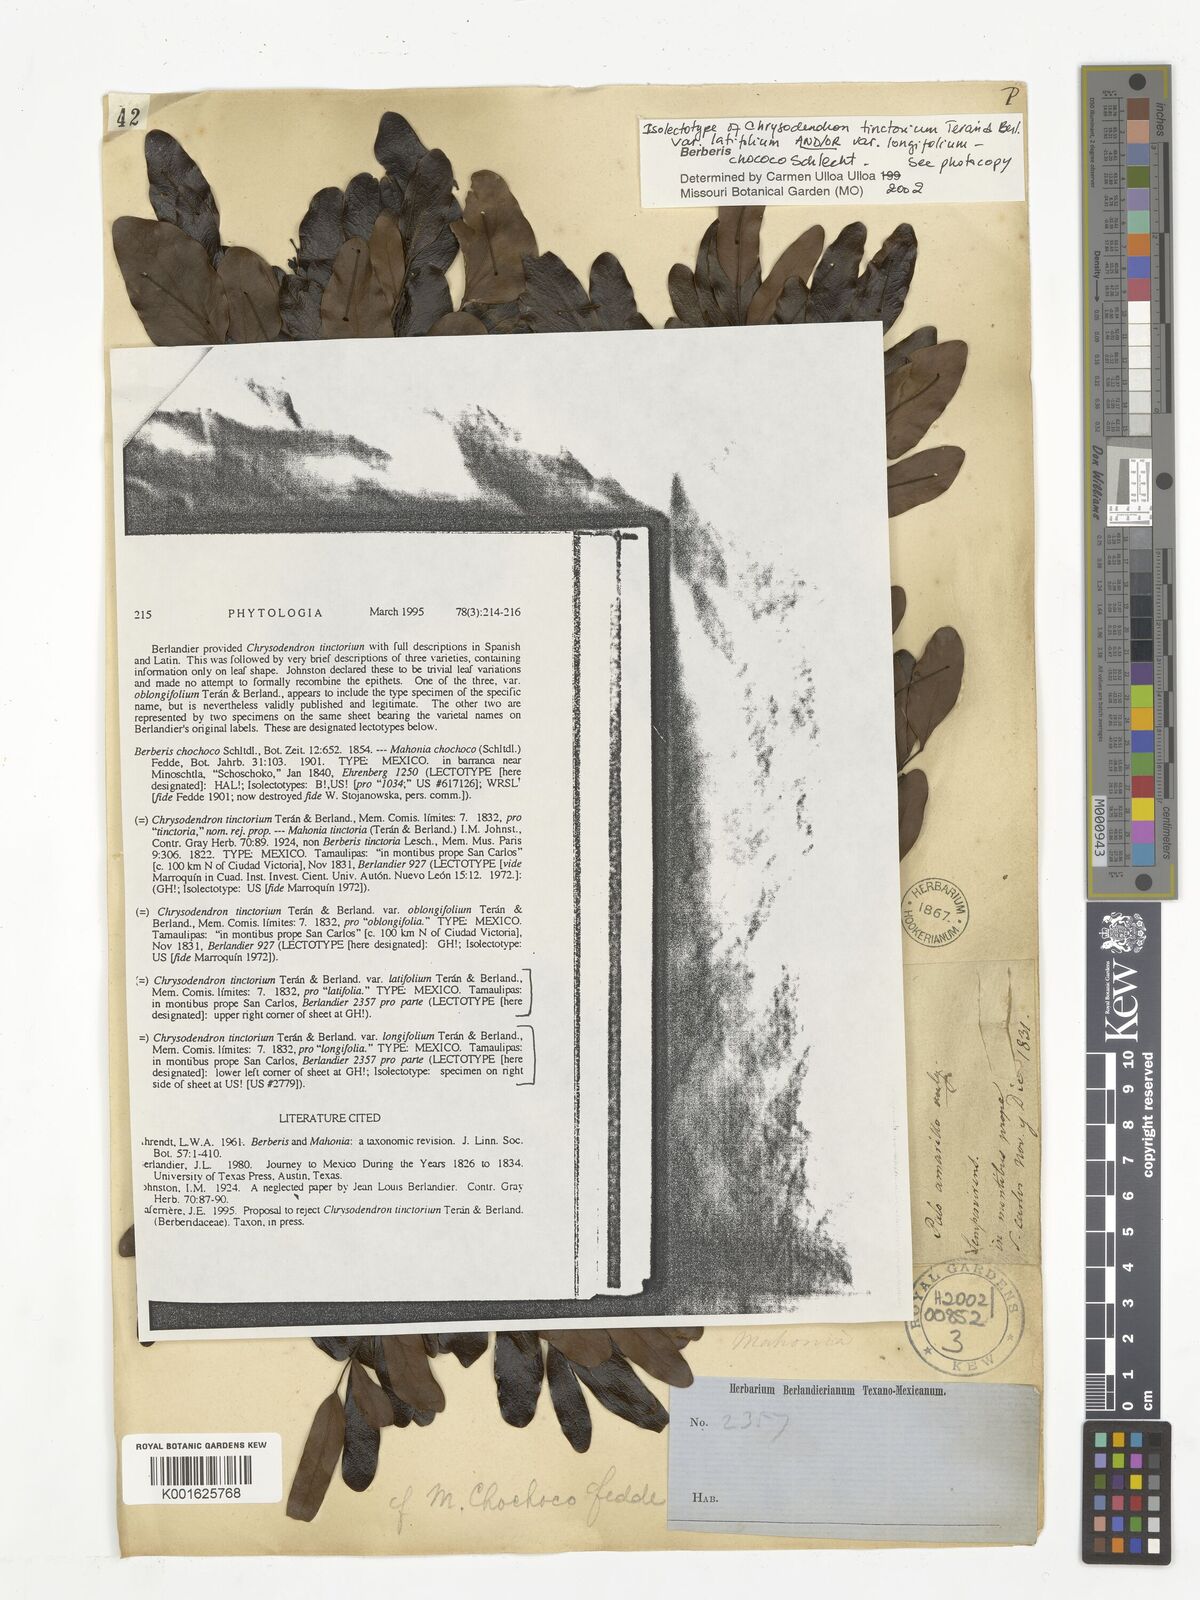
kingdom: Plantae
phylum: Tracheophyta
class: Magnoliopsida
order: Ranunculales
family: Berberidaceae
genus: Mahonia
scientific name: Mahonia chochoco
